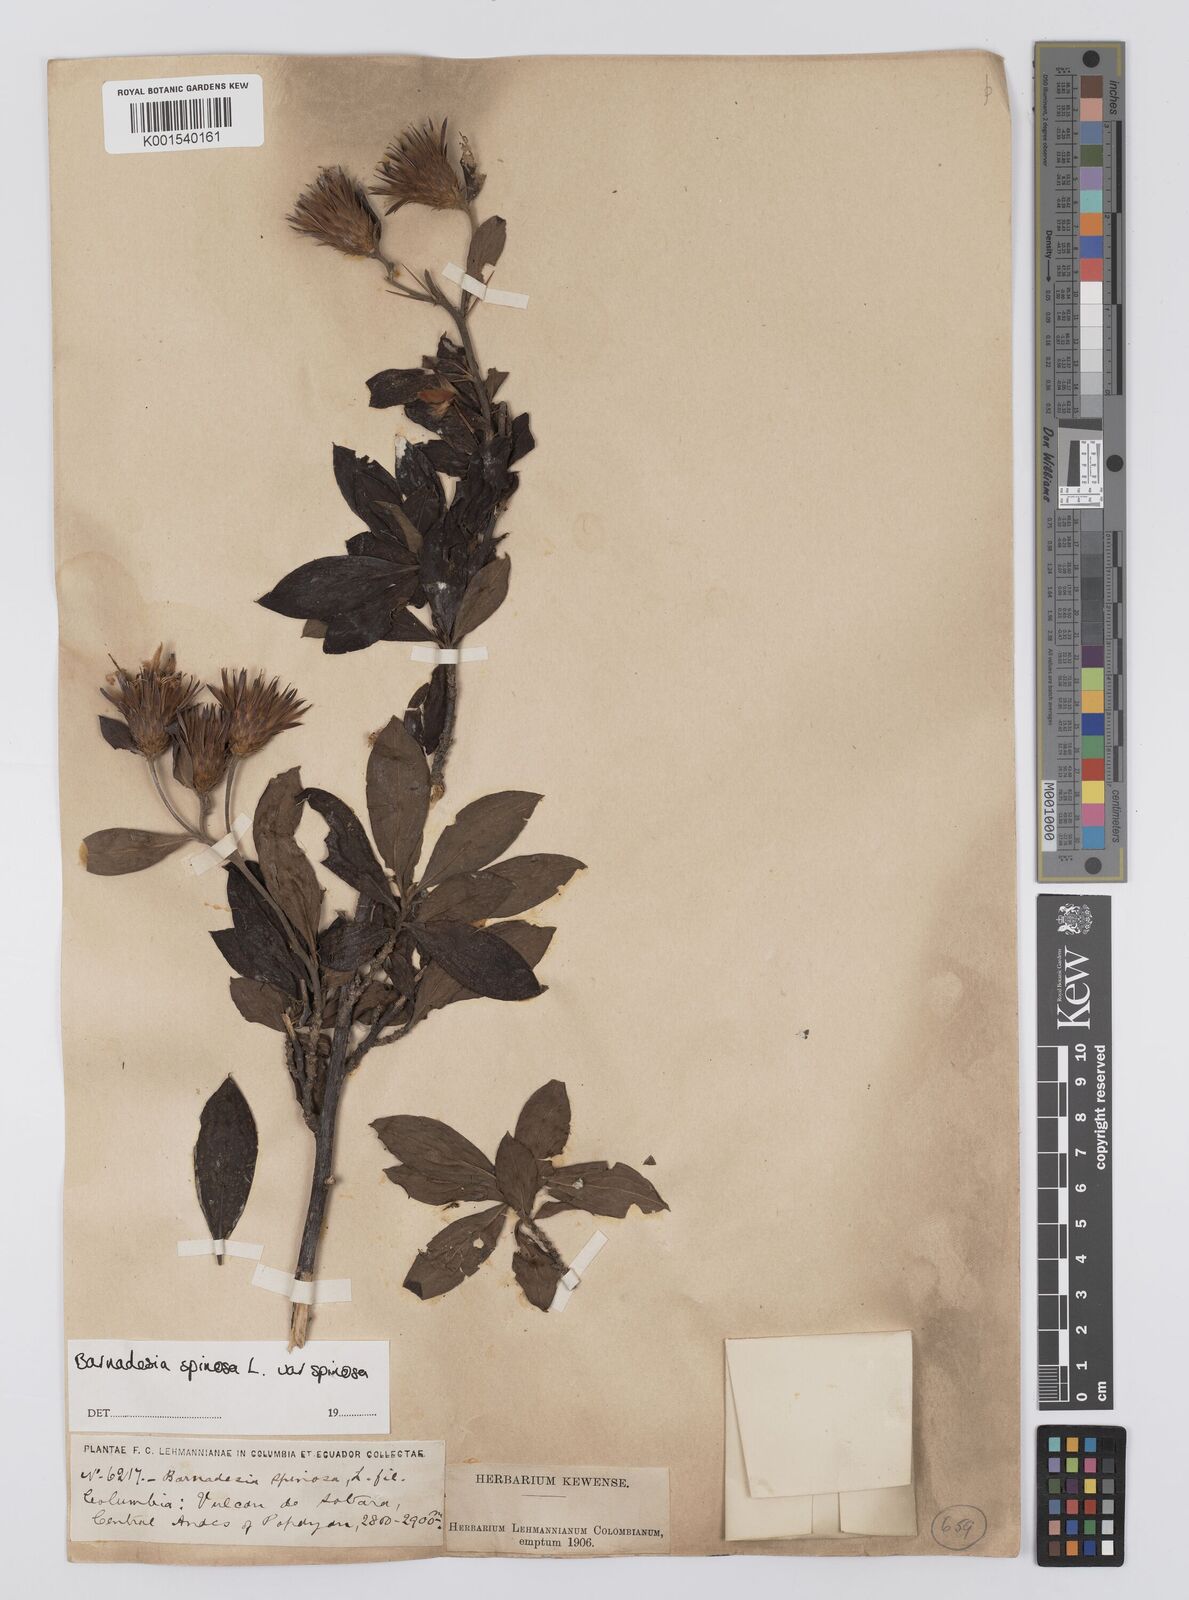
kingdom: Plantae
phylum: Tracheophyta
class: Magnoliopsida
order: Asterales
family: Asteraceae
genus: Barnadesia
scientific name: Barnadesia spinosa
